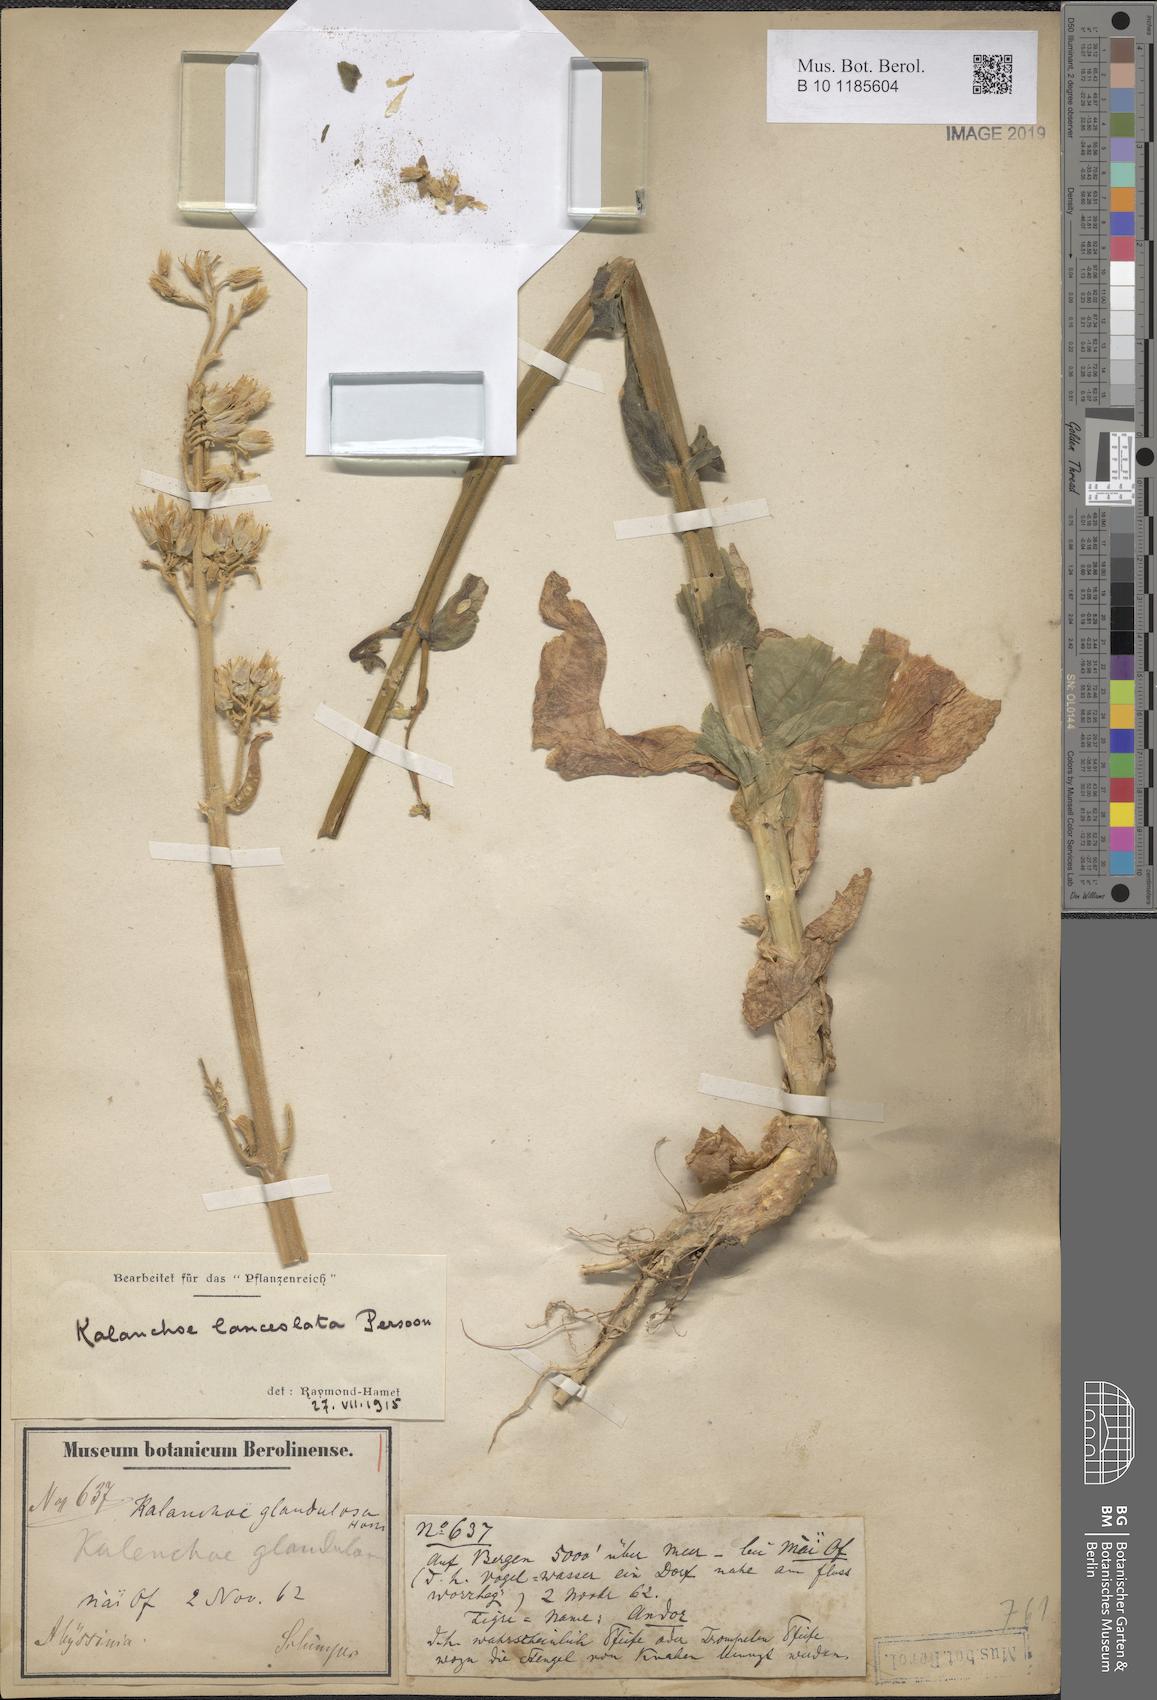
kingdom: Plantae
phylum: Tracheophyta
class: Magnoliopsida
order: Saxifragales
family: Crassulaceae
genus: Kalanchoe
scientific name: Kalanchoe lanceolata
